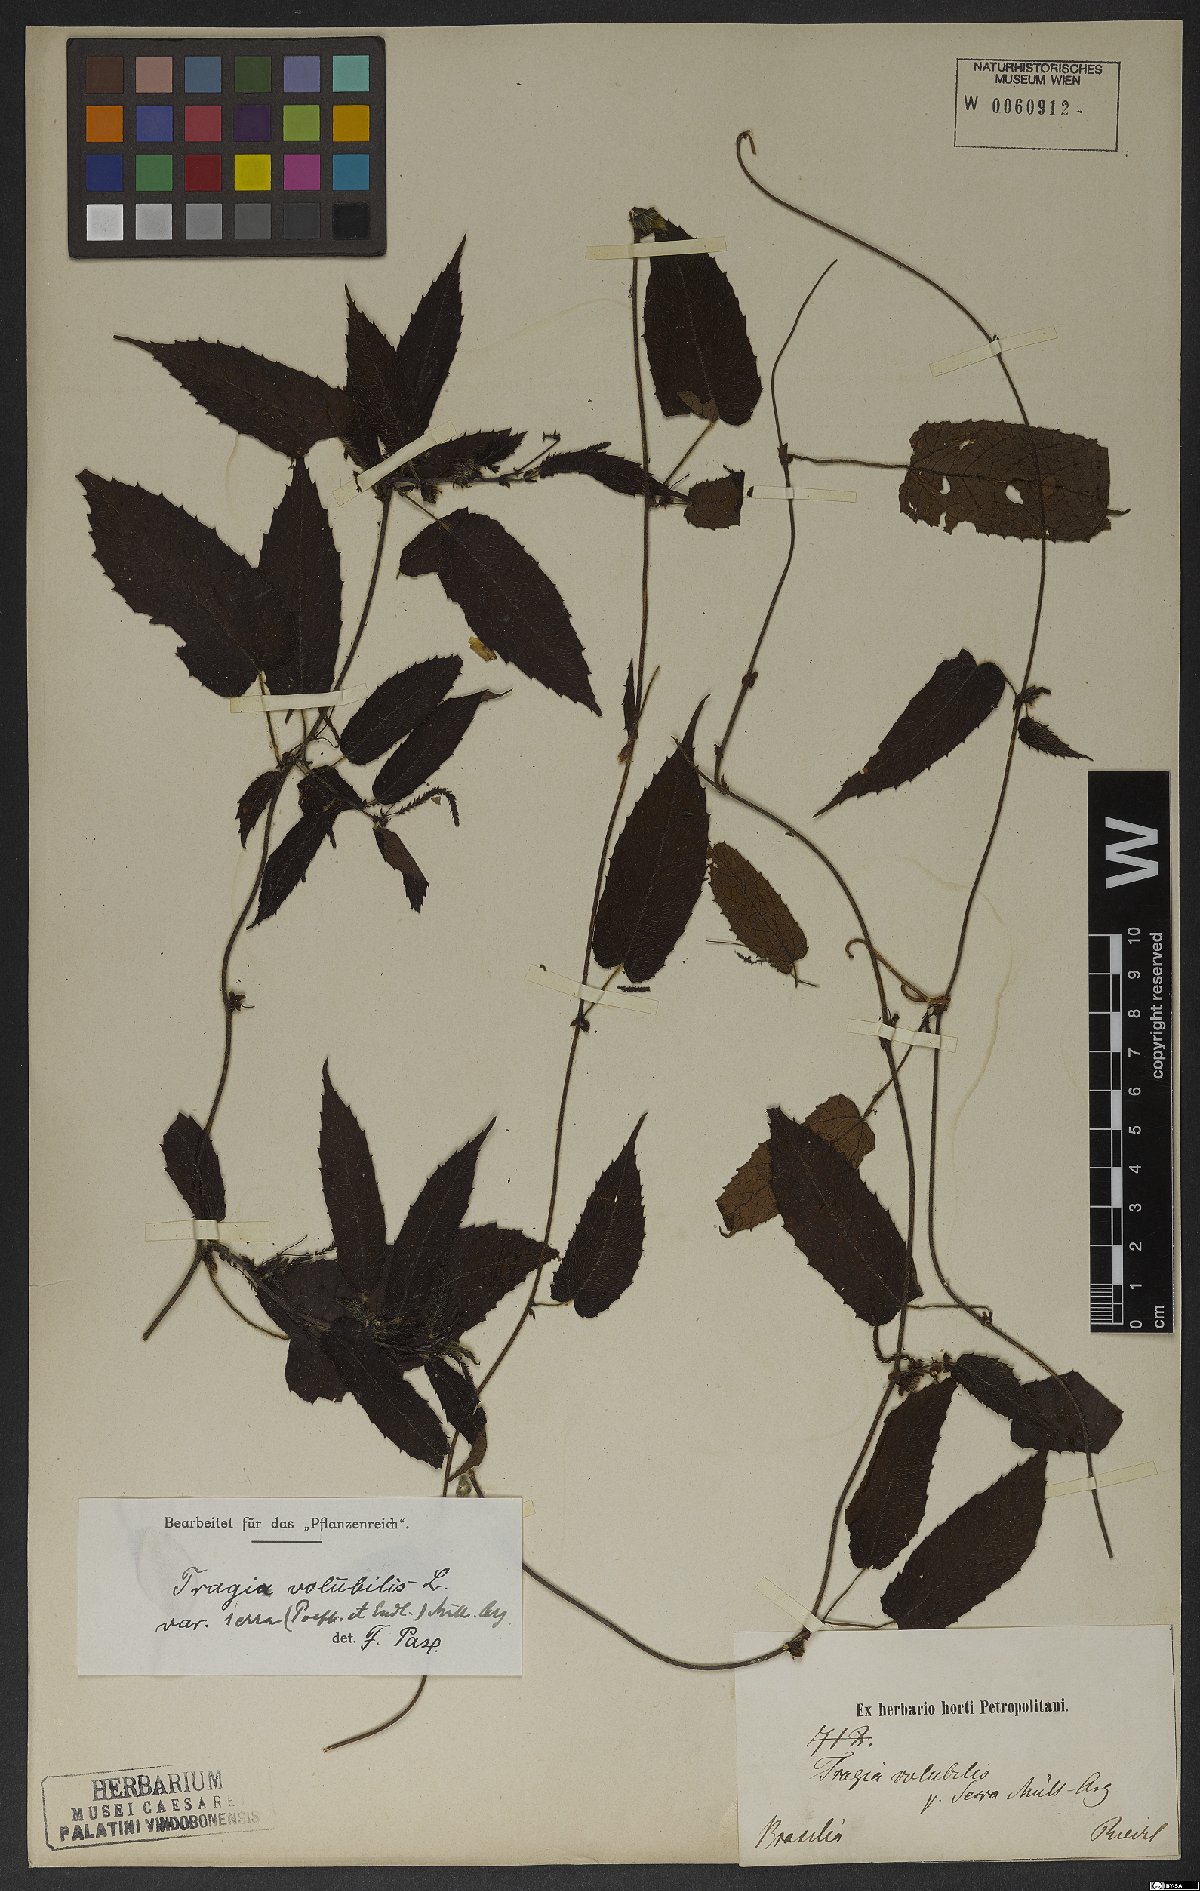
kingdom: Plantae
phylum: Tracheophyta
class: Magnoliopsida
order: Malpighiales
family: Euphorbiaceae
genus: Tragia
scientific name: Tragia volubilis
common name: Twining cow-itch
